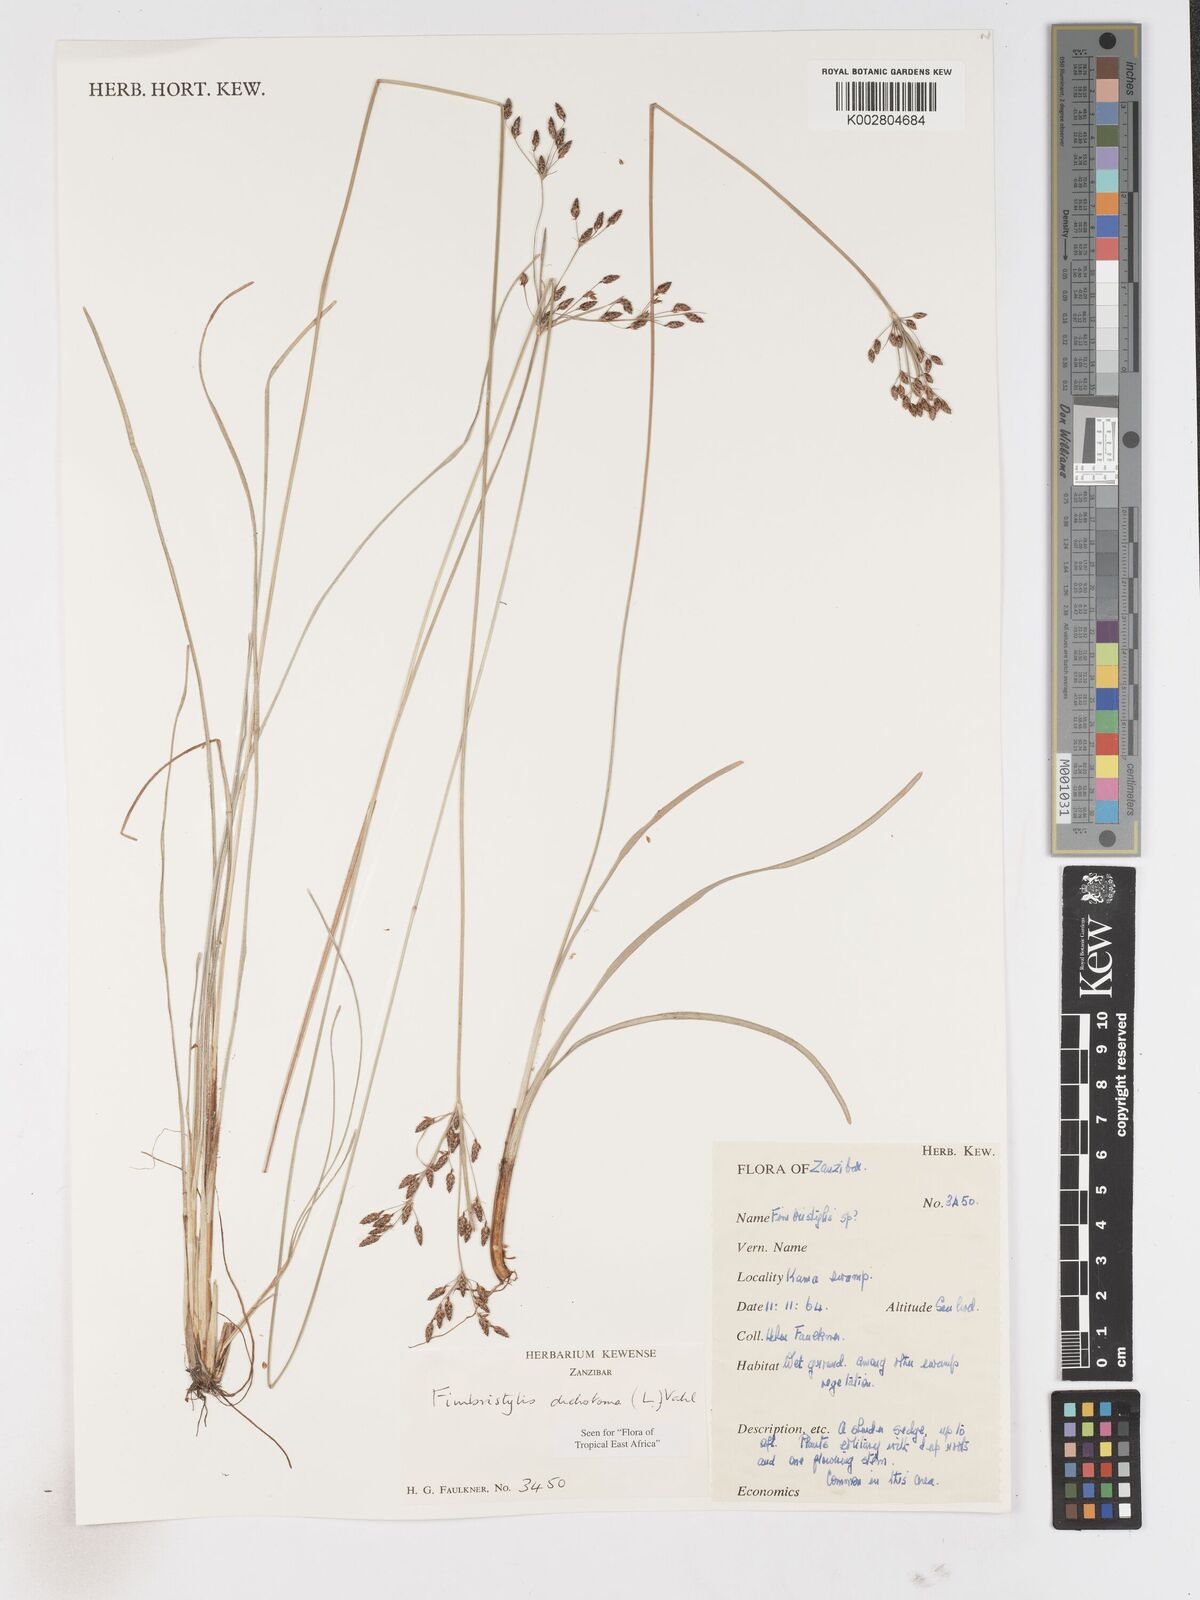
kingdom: Plantae
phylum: Tracheophyta
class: Liliopsida
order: Poales
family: Cyperaceae
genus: Fimbristylis
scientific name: Fimbristylis dichotoma
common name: Forked fimbry
